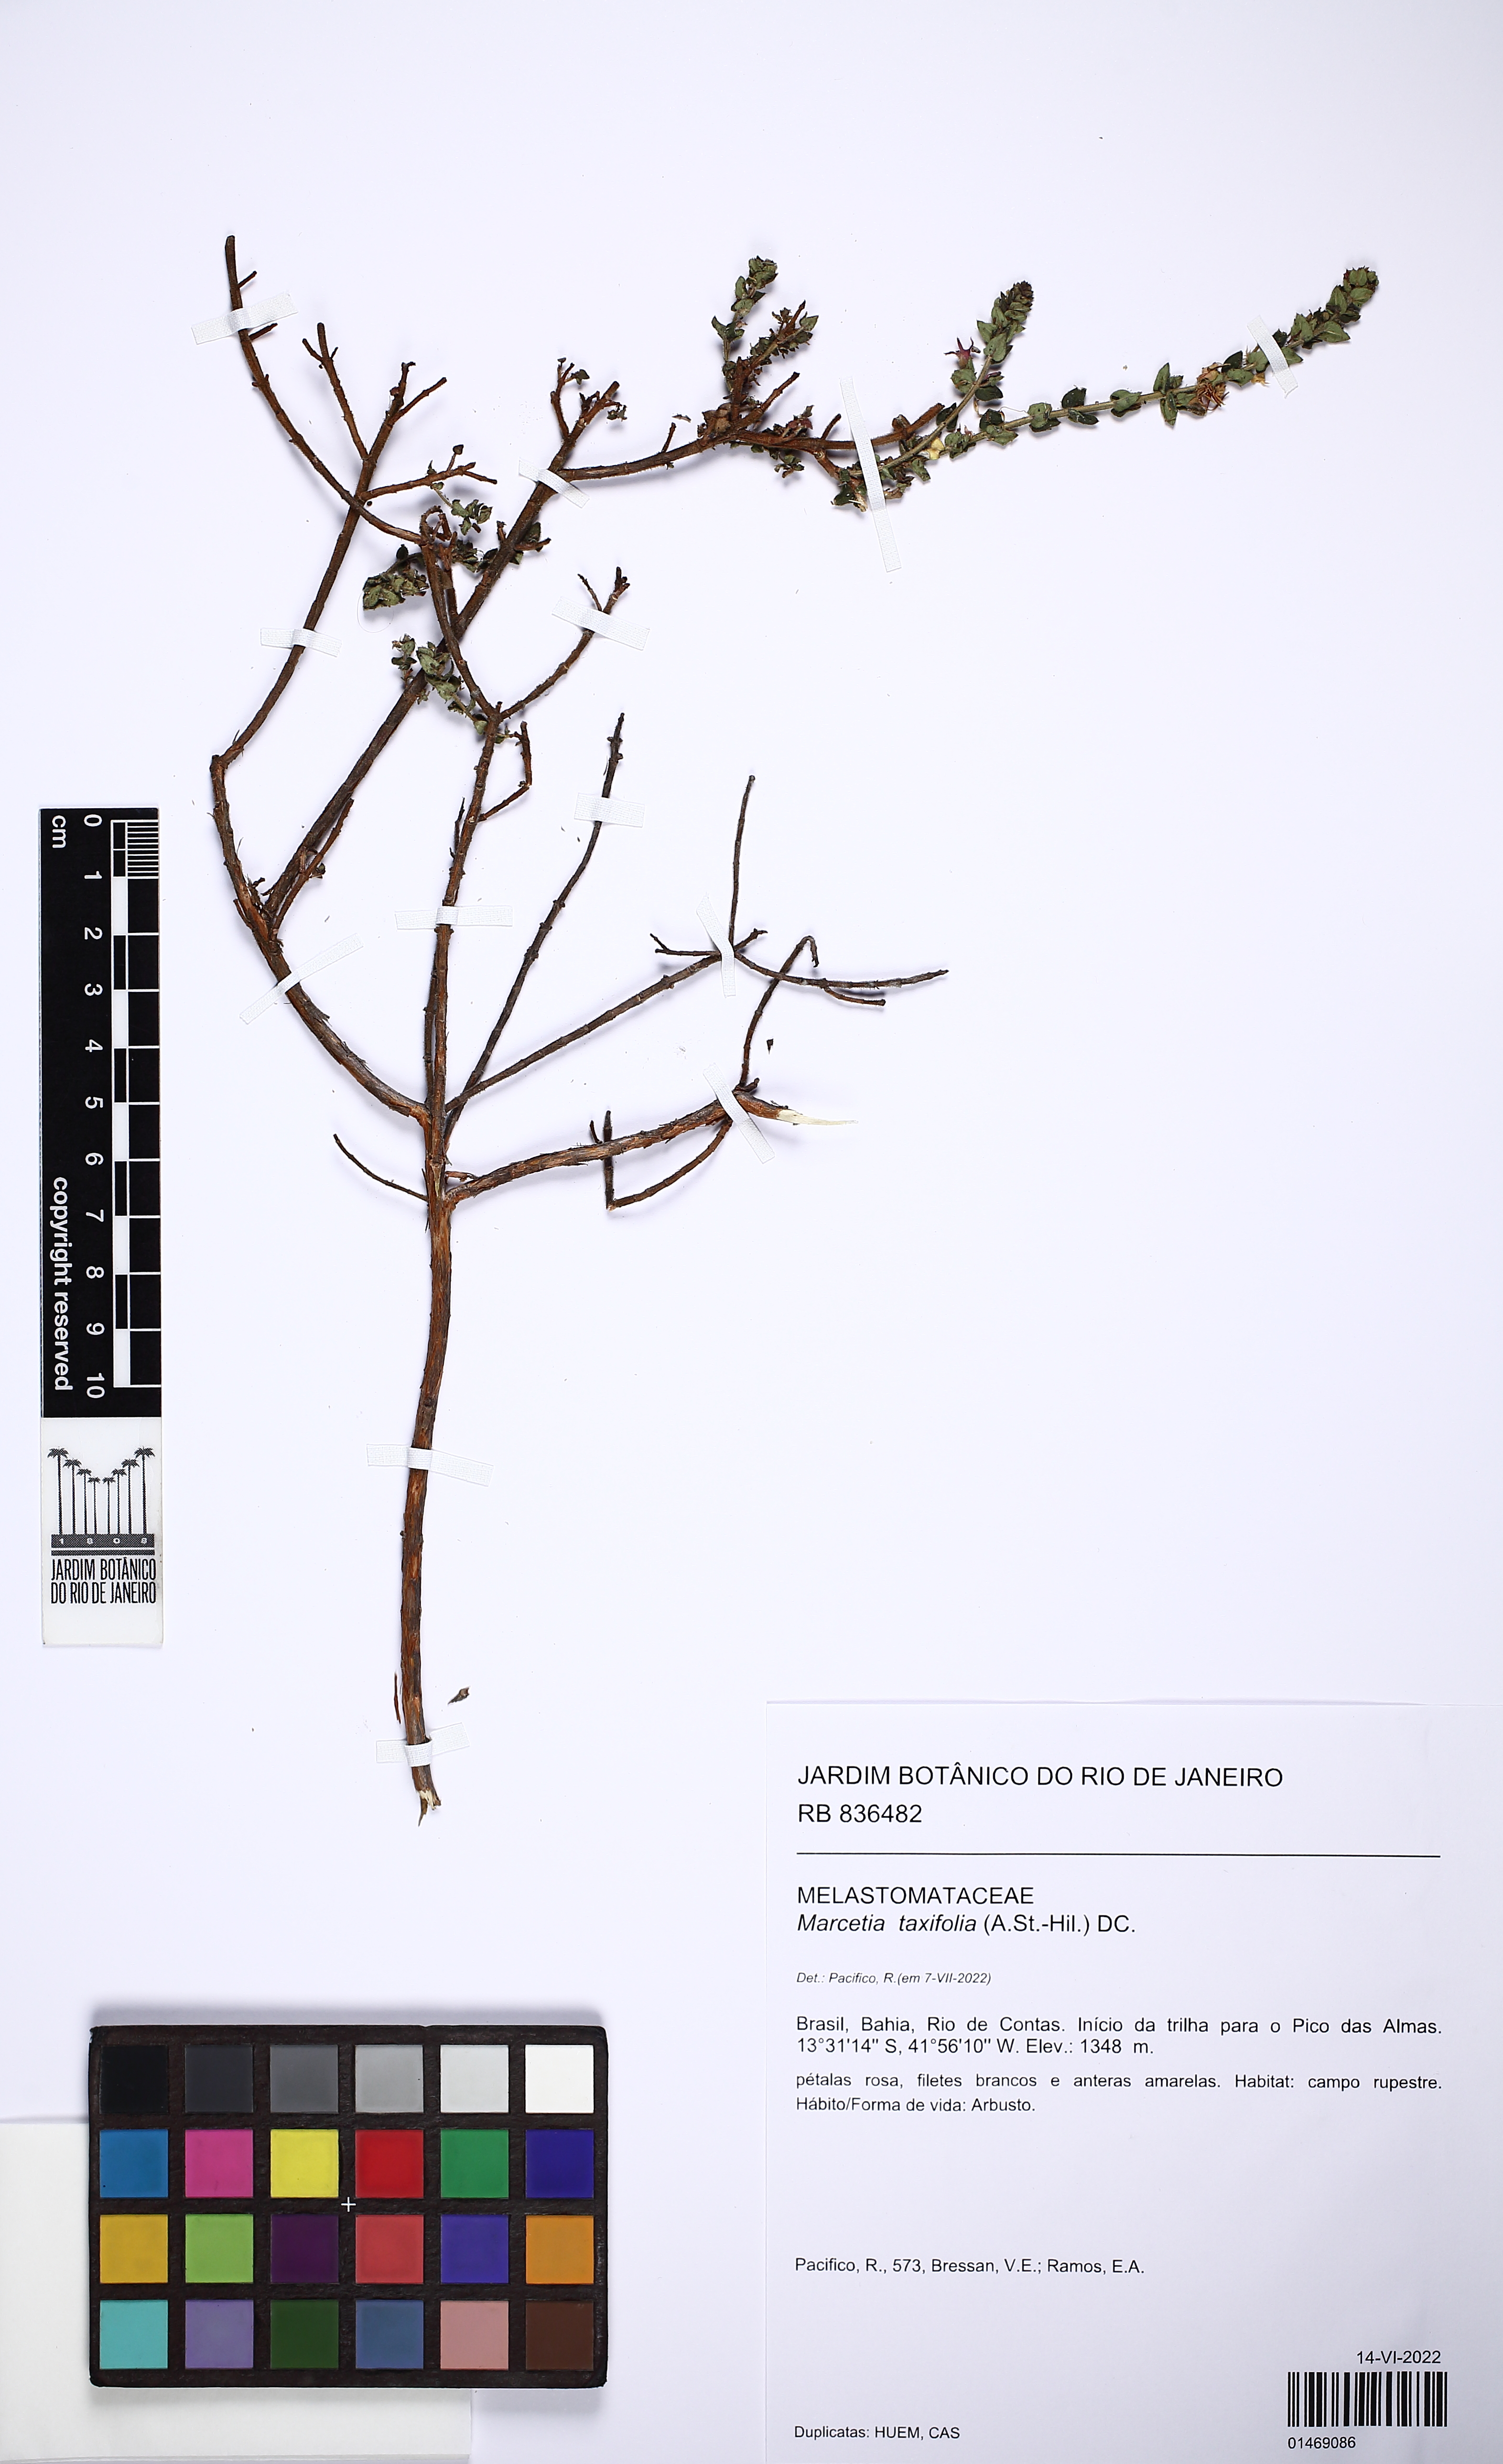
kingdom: Plantae
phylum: Tracheophyta
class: Magnoliopsida
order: Myrtales
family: Melastomataceae
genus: Marcetia
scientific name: Marcetia taxifolia
